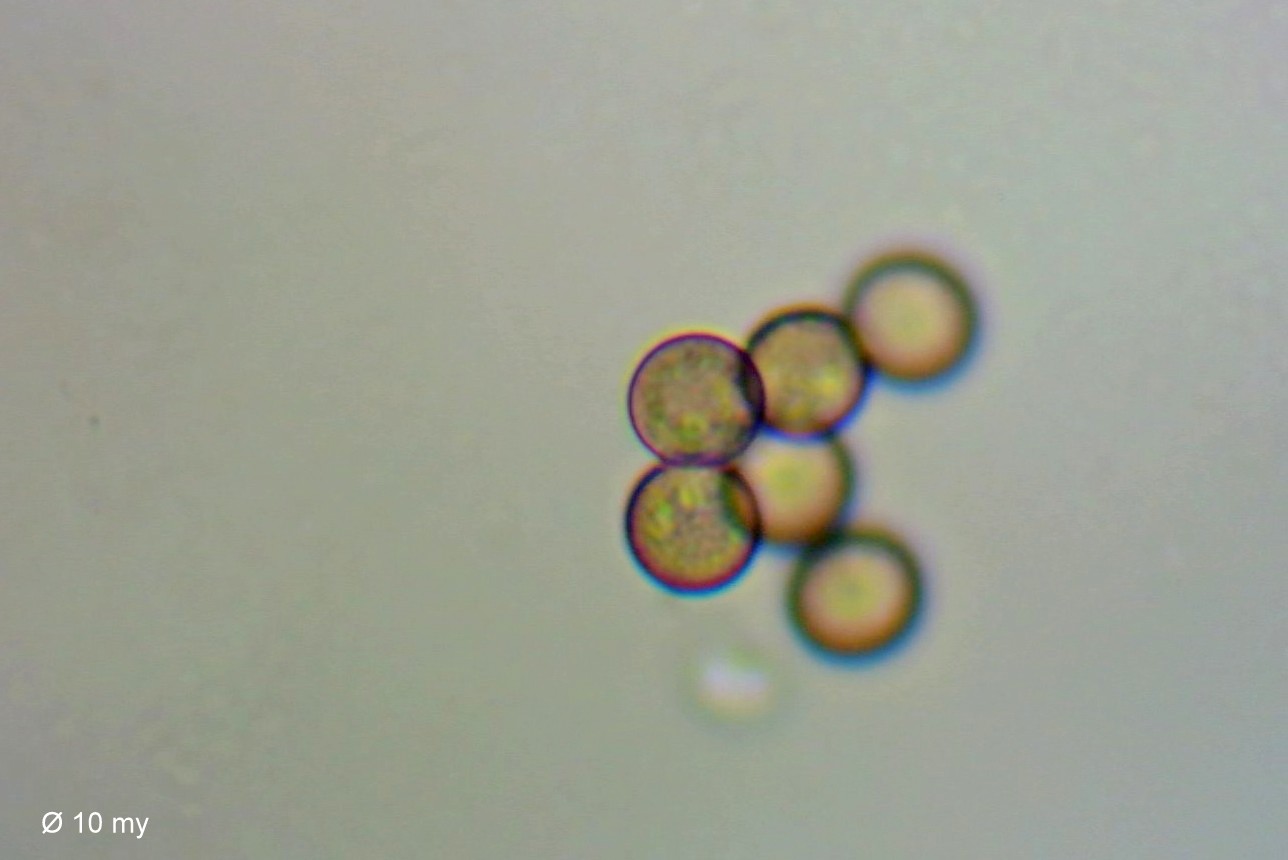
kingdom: Protozoa
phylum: Mycetozoa
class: Myxomycetes
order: Stemonitidales
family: Stemonitidaceae
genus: Comatricha
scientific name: Comatricha nigra
